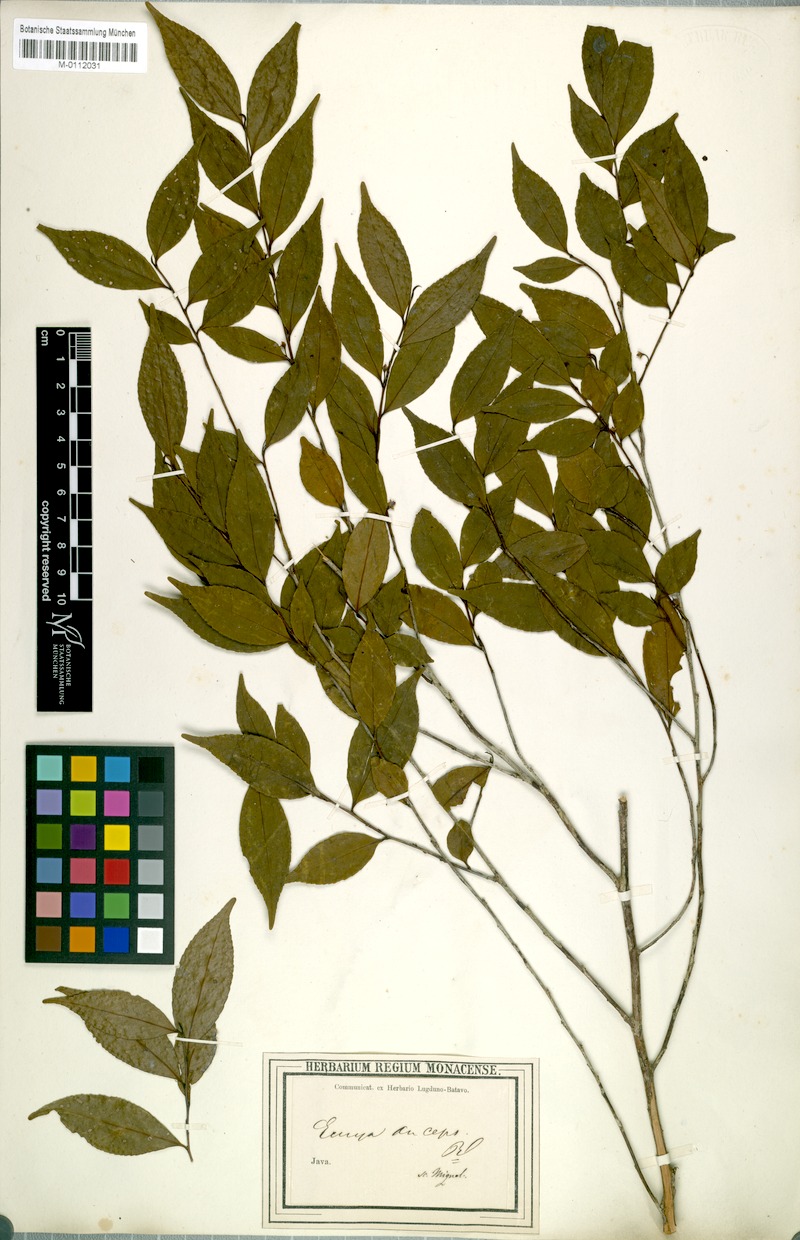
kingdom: Plantae
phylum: Tracheophyta
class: Magnoliopsida
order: Ericales
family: Pentaphylacaceae
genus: Eurya
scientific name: Eurya nitida
